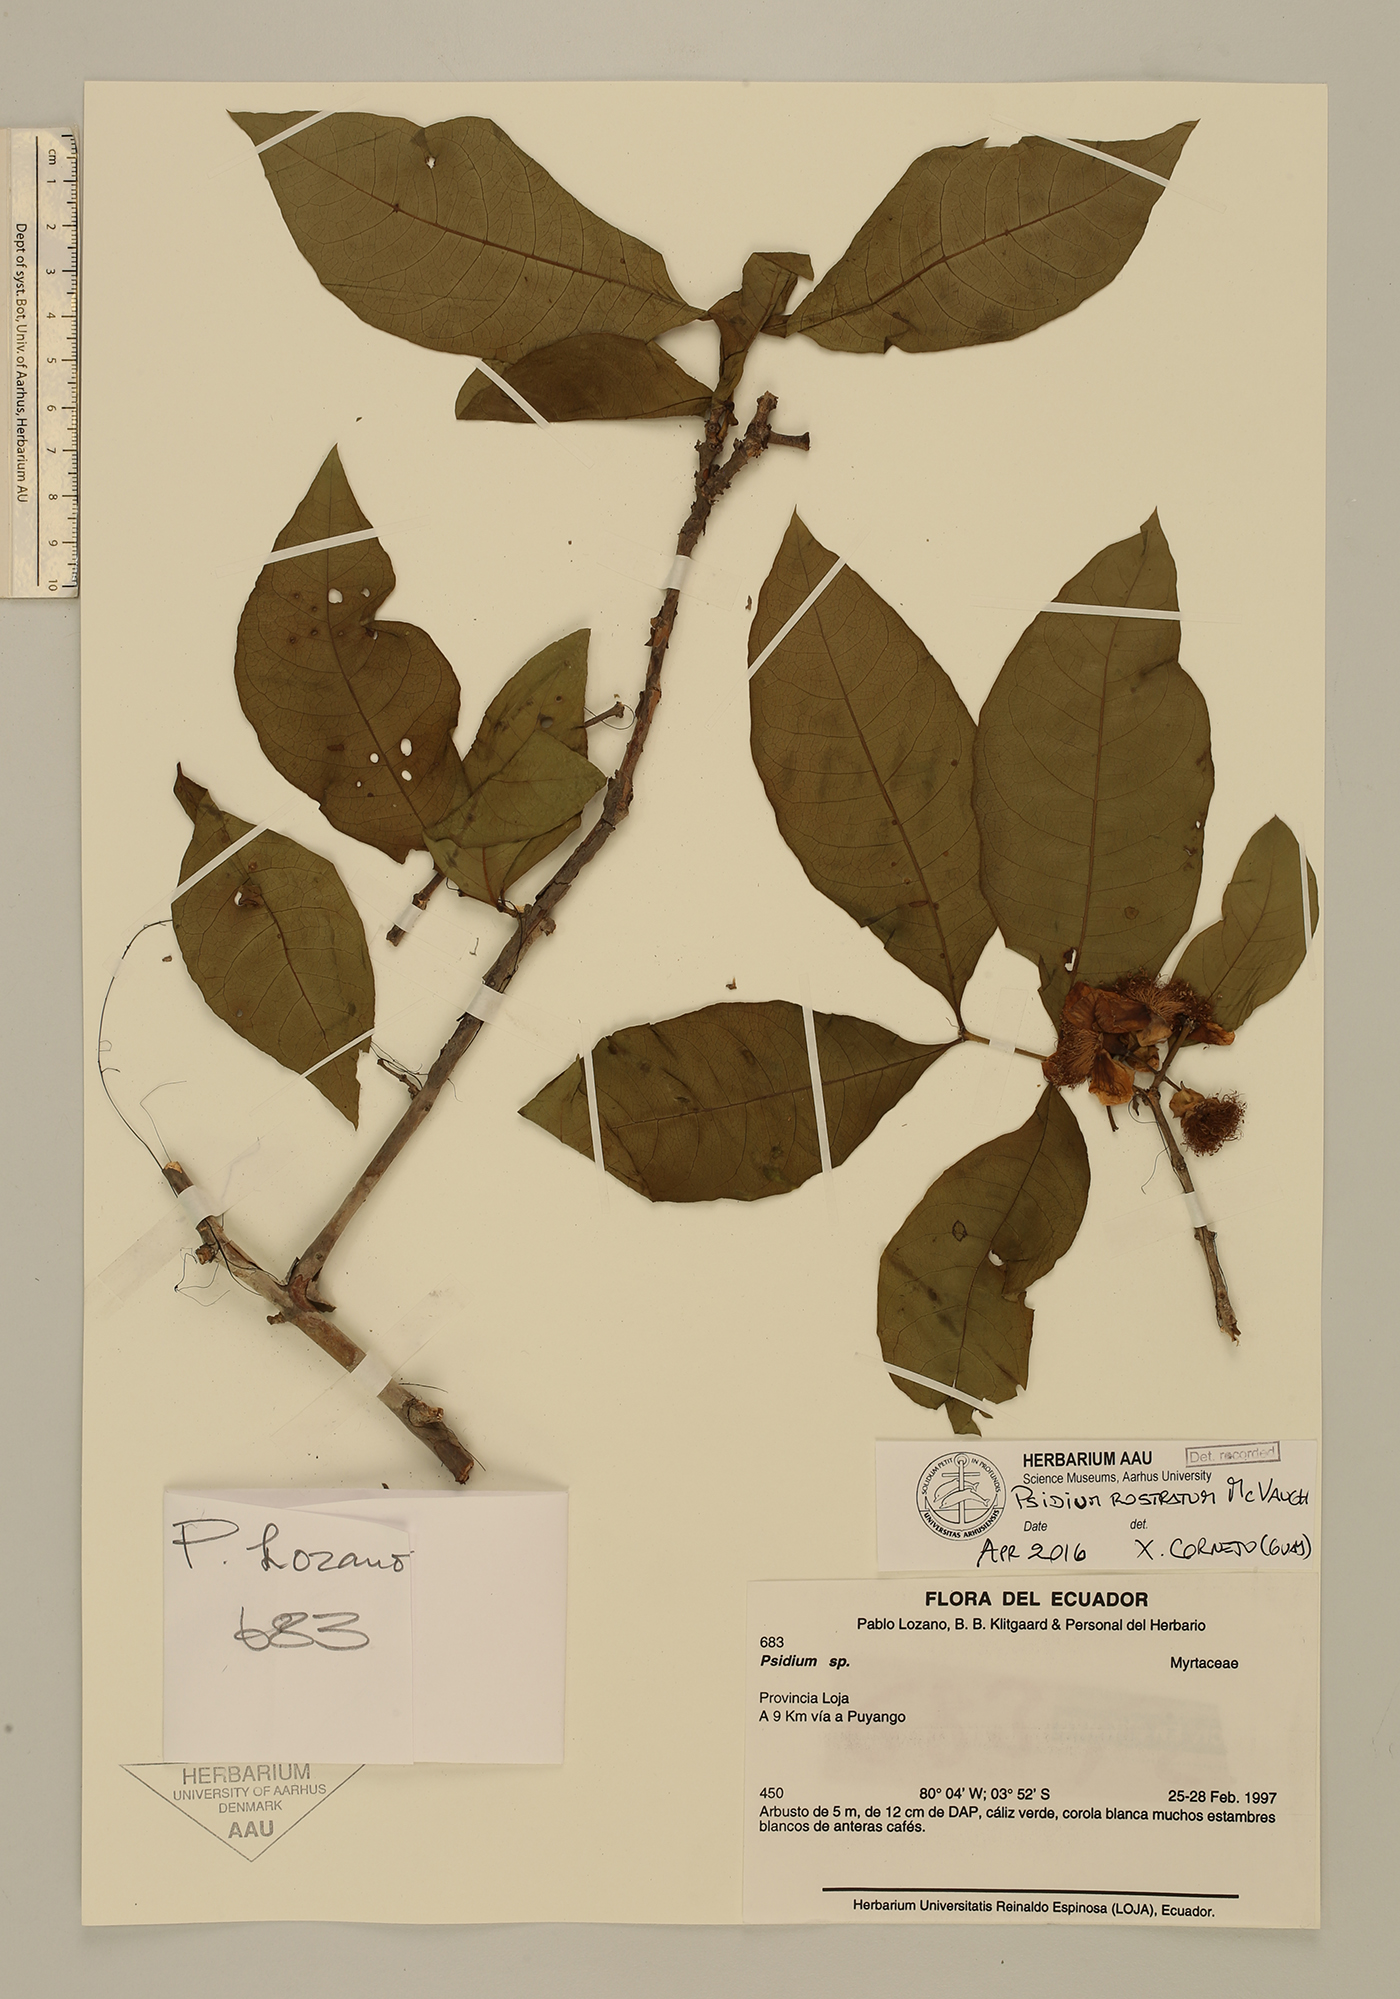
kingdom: Plantae
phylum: Tracheophyta
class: Magnoliopsida
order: Myrtales
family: Myrtaceae
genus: Psidium
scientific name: Psidium rostratum
